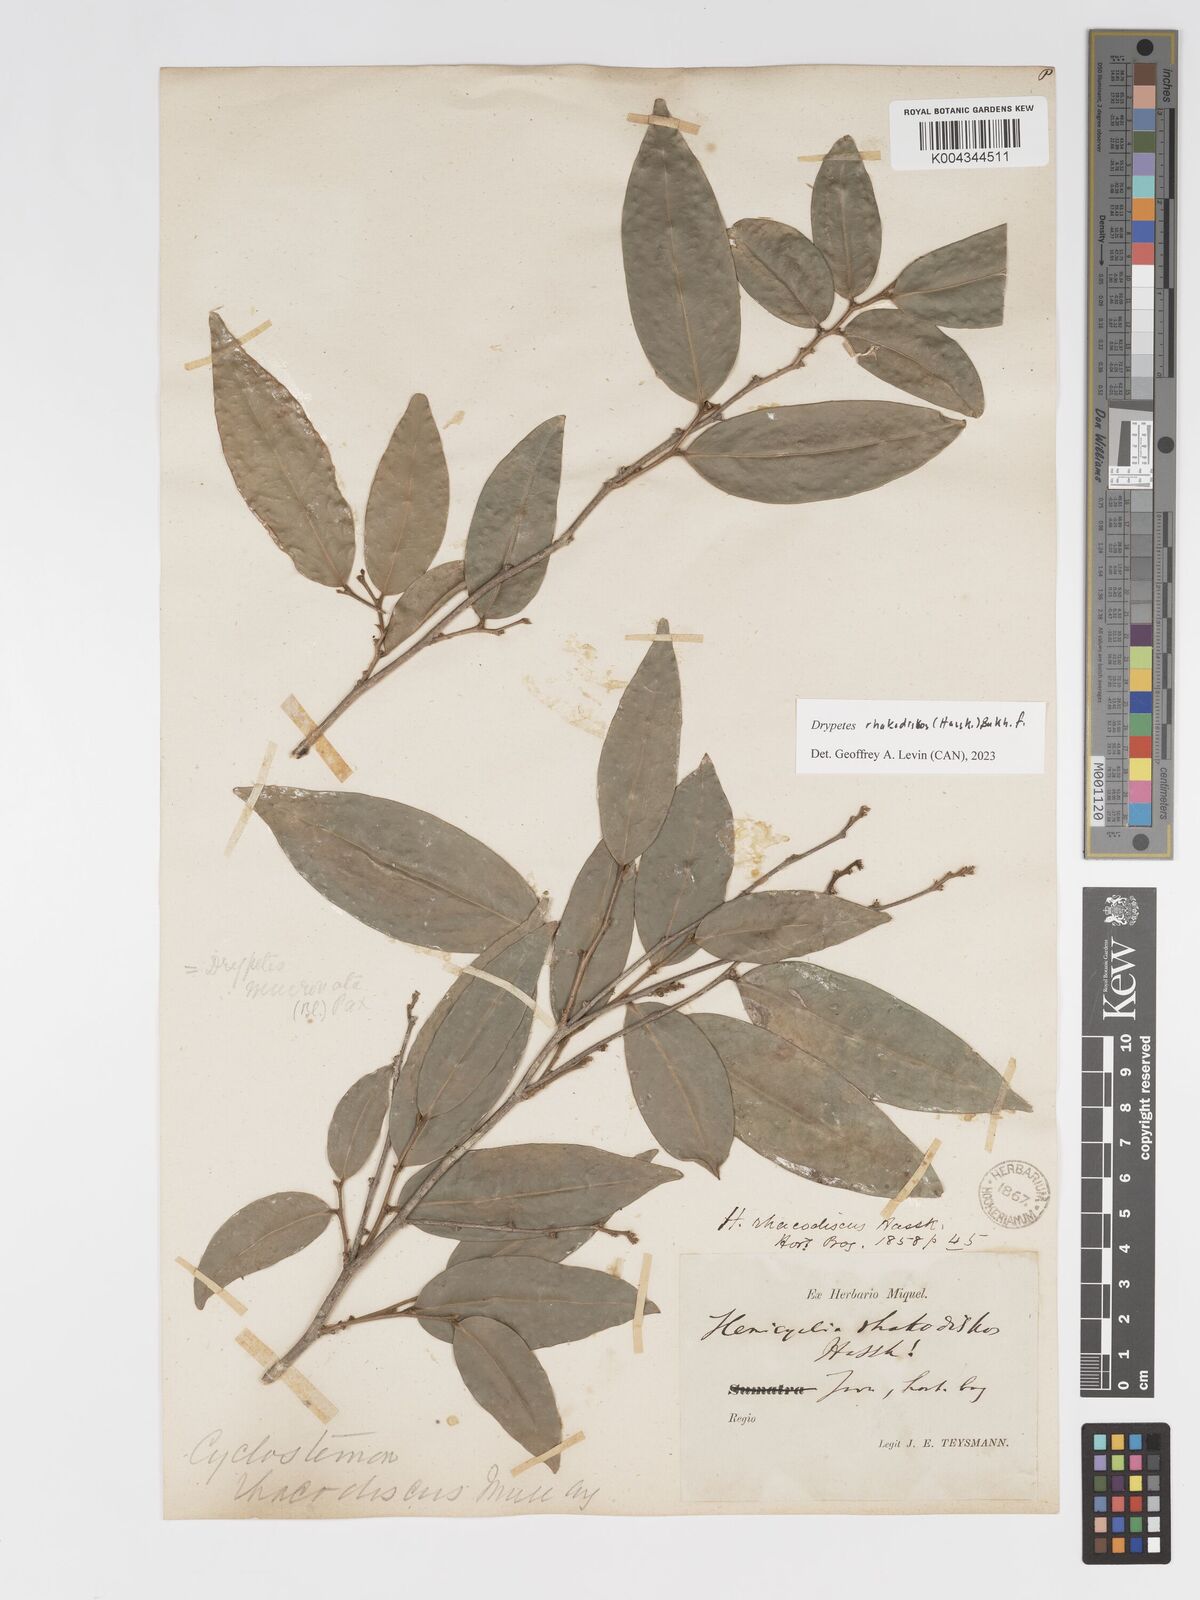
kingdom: Plantae
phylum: Tracheophyta
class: Magnoliopsida
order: Malpighiales
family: Putranjivaceae
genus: Drypetes
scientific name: Drypetes rhakodiskos
